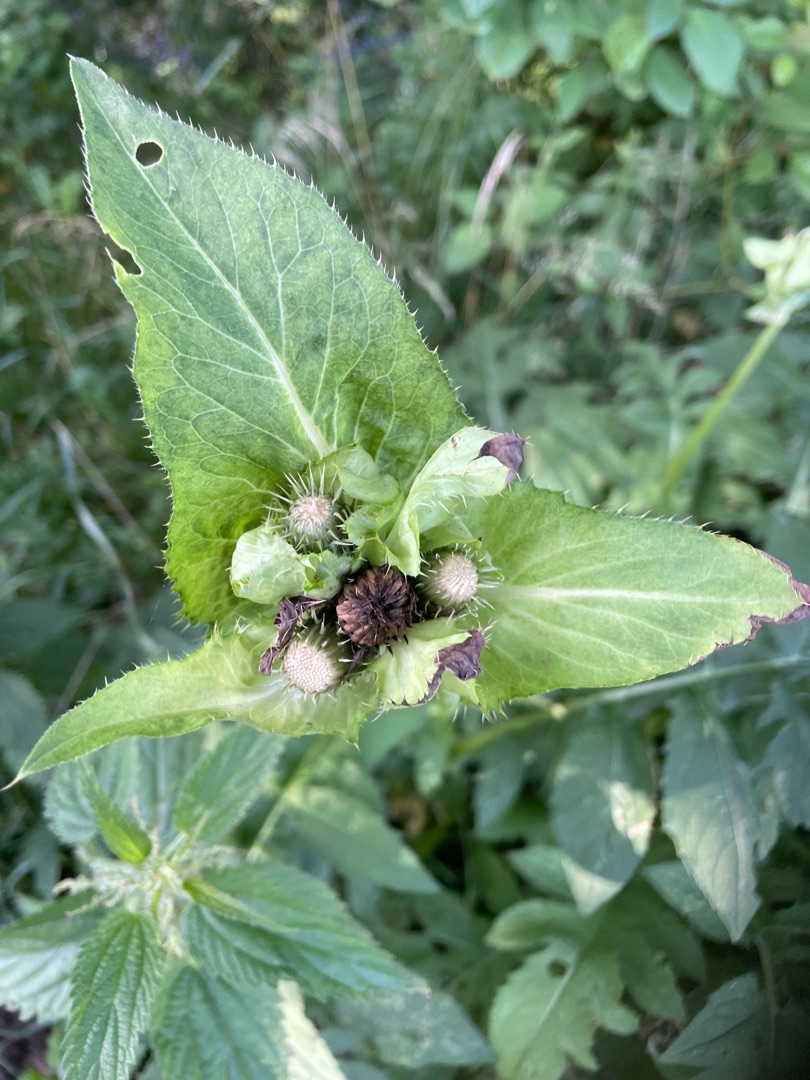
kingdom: Plantae
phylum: Tracheophyta
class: Magnoliopsida
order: Asterales
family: Asteraceae
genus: Cirsium
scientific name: Cirsium oleraceum
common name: Kål-tidsel
